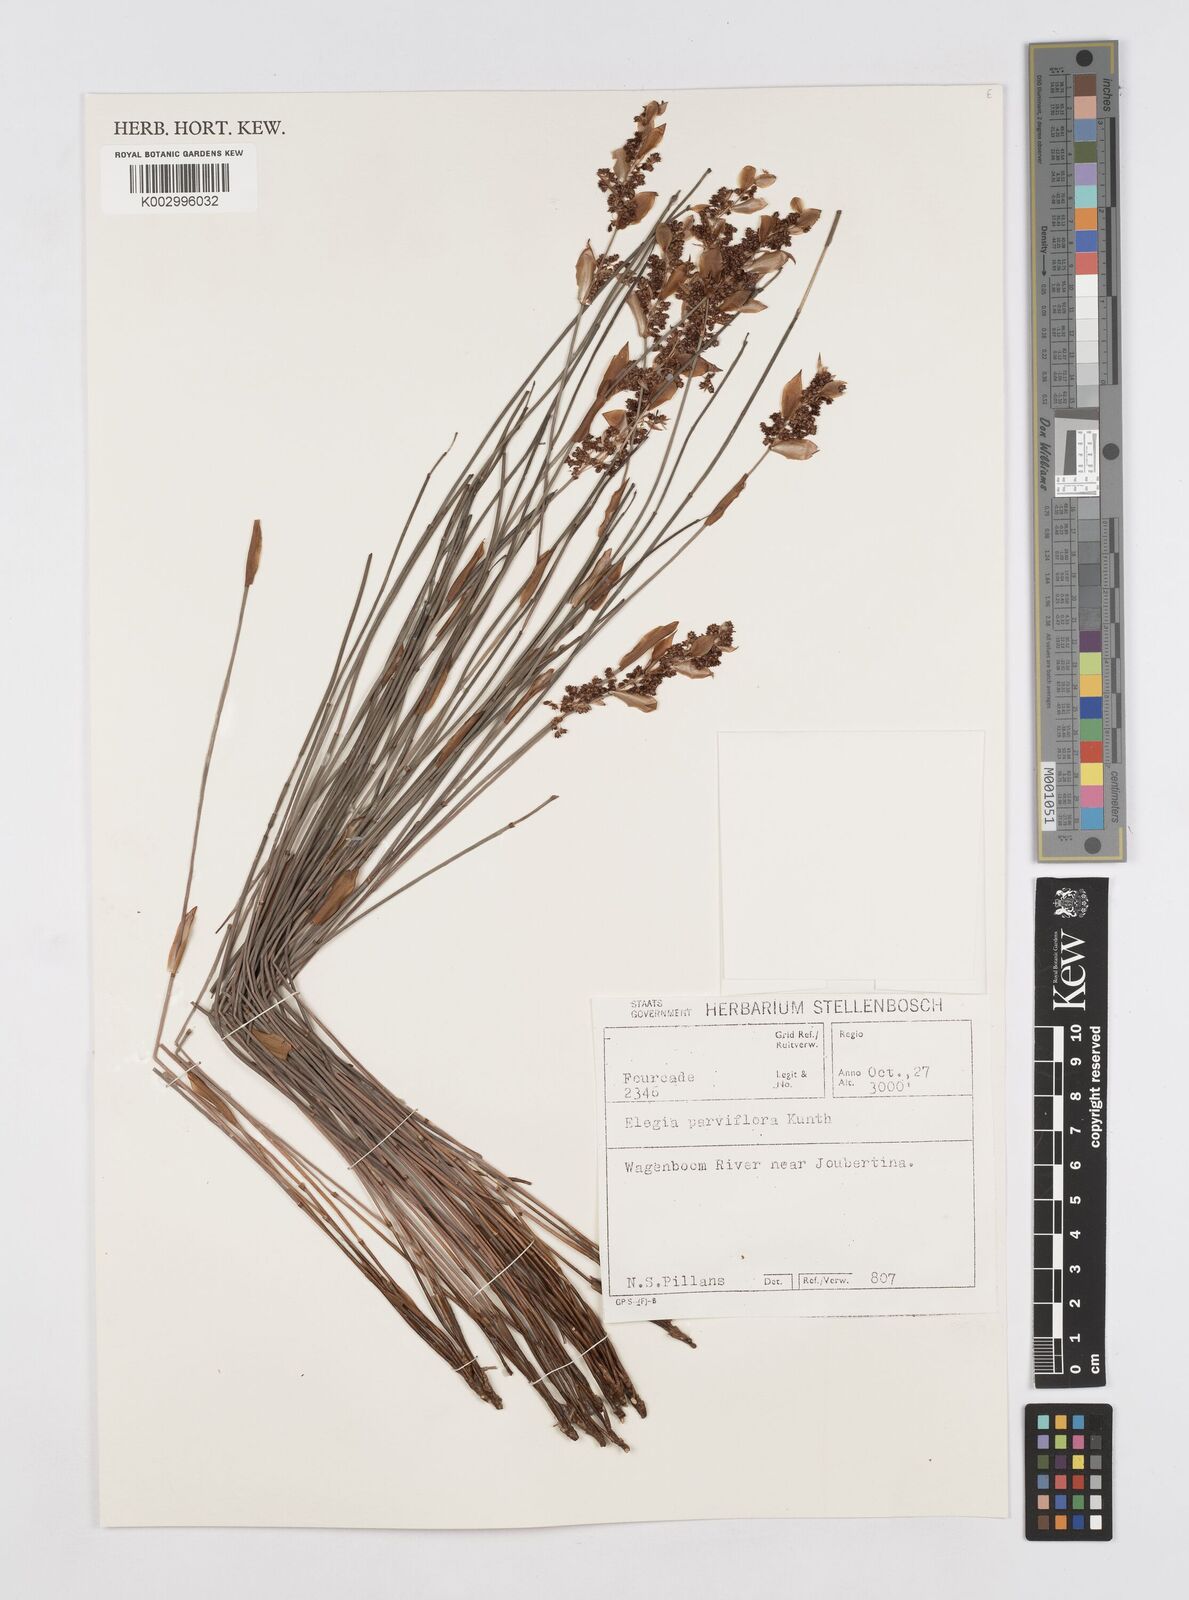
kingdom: Plantae
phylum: Tracheophyta
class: Liliopsida
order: Poales
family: Restionaceae
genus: Cannomois
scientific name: Cannomois parviflora
